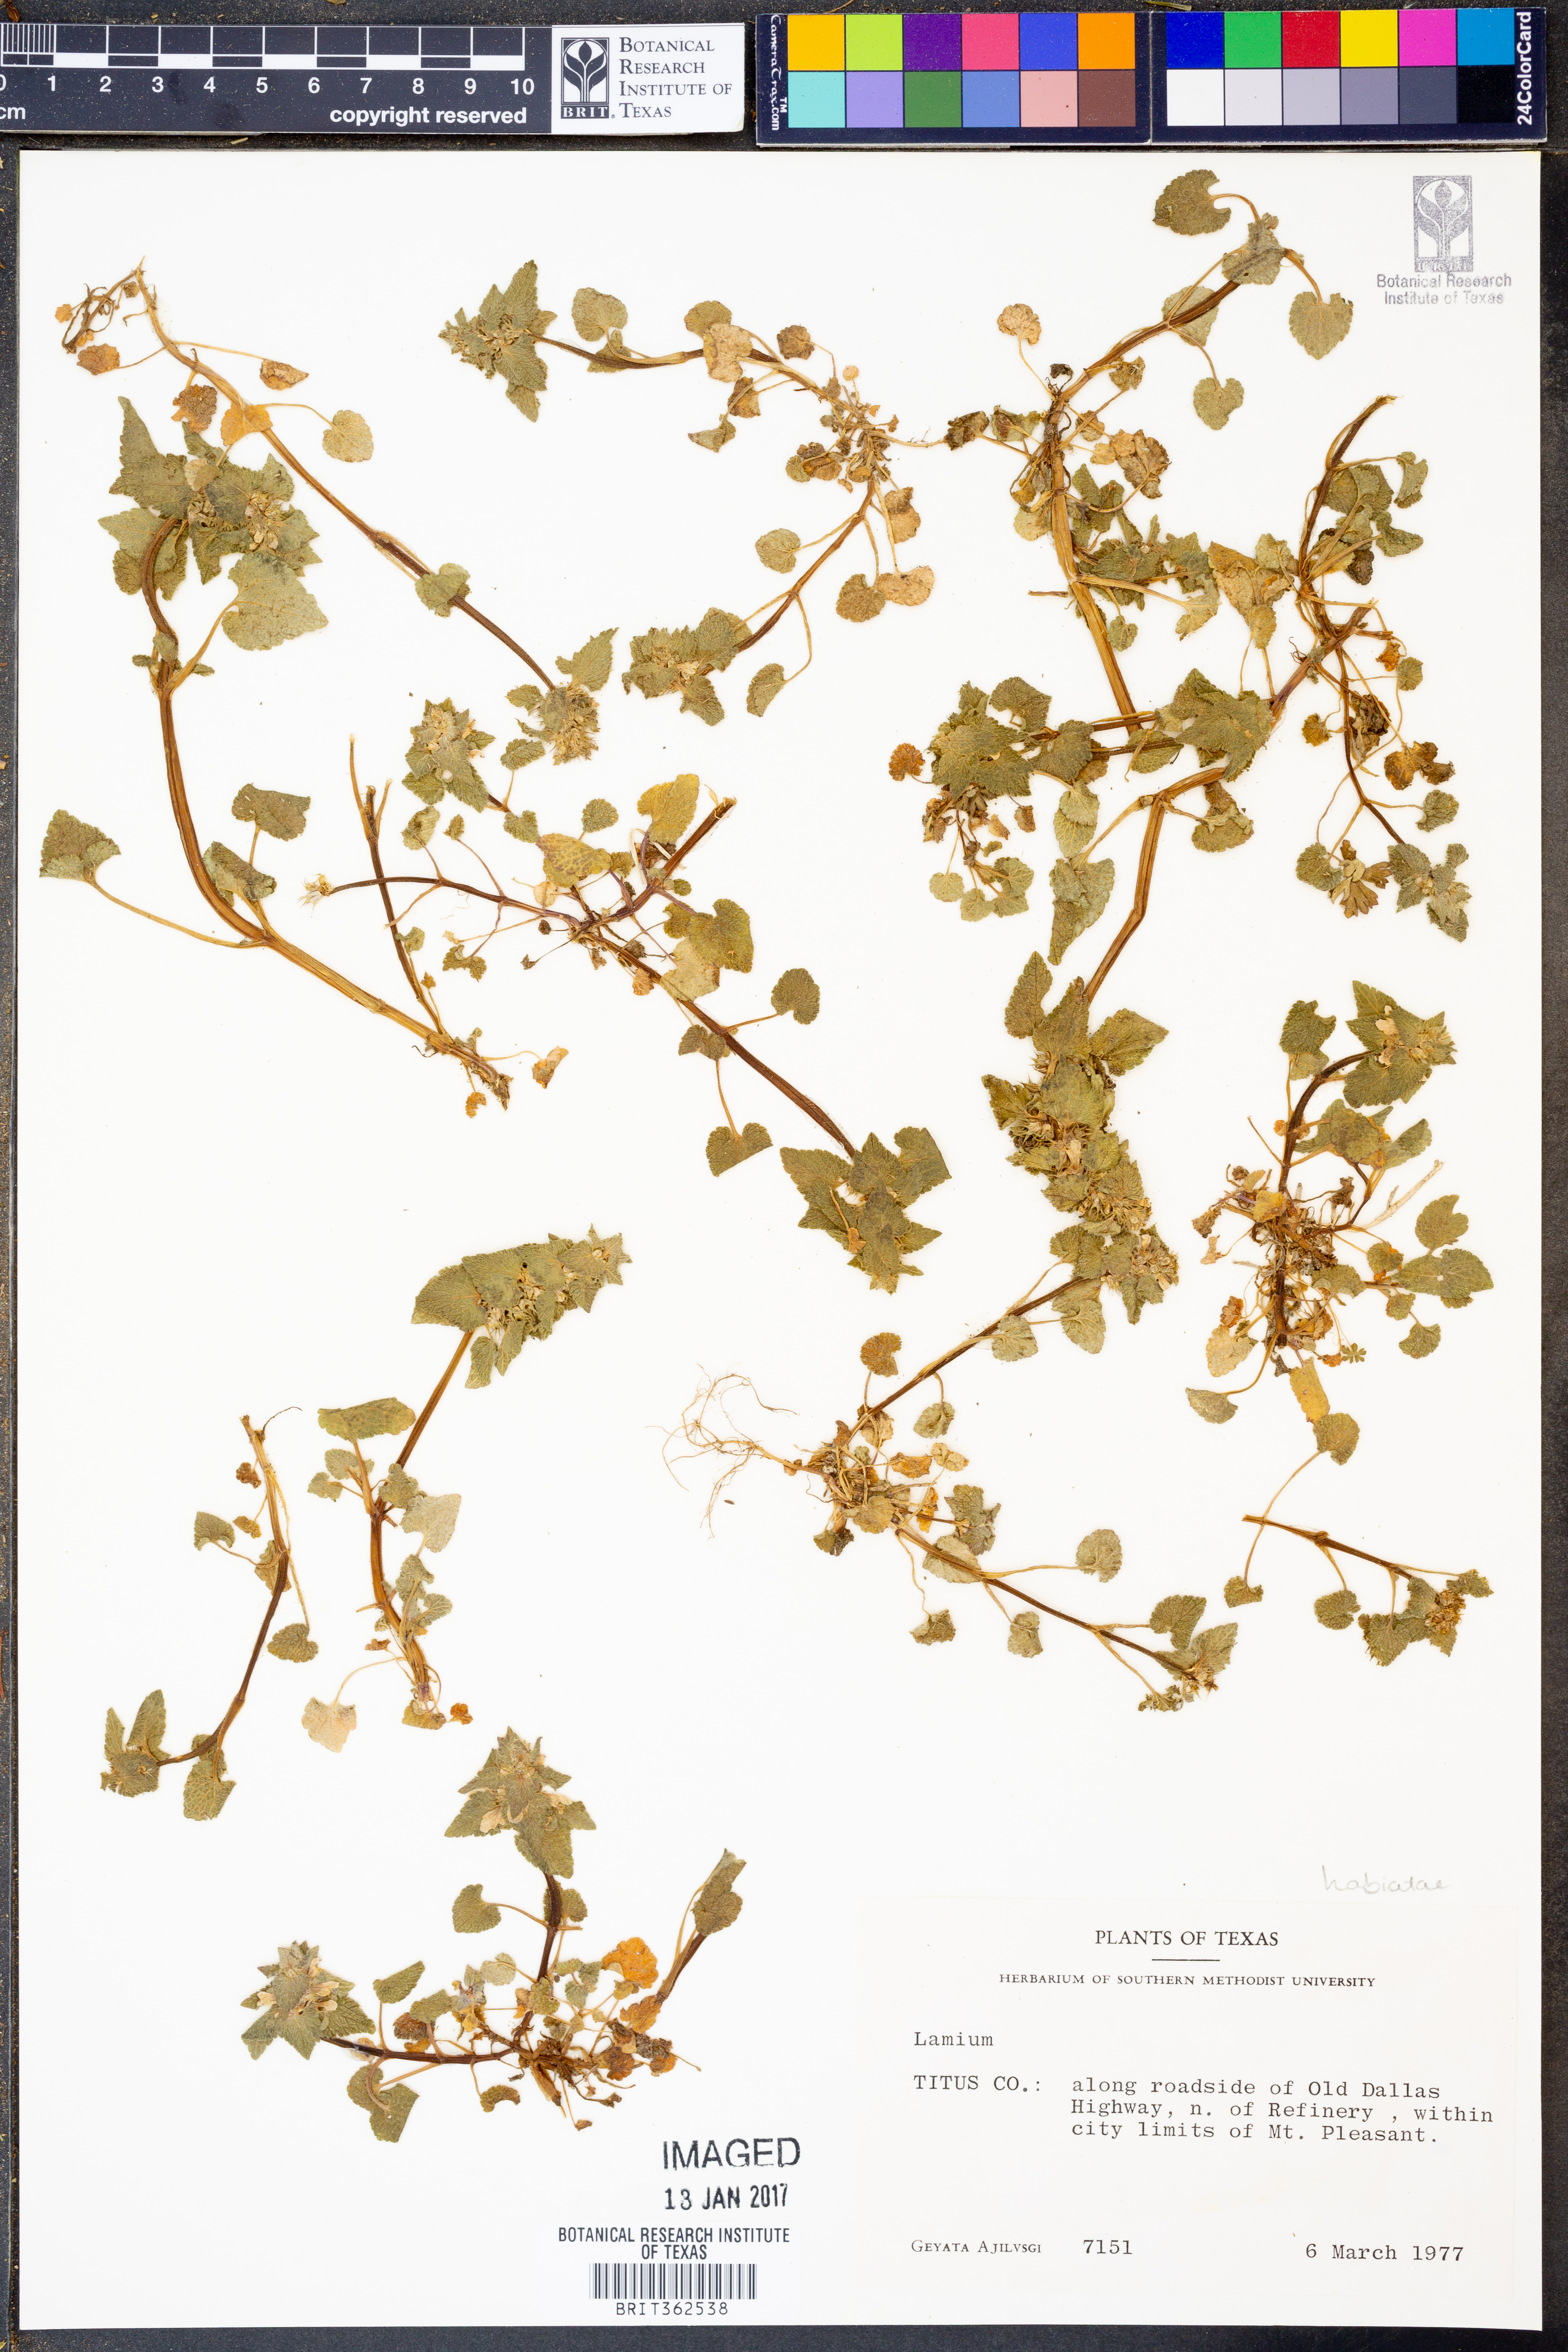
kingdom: Plantae
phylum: Tracheophyta
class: Magnoliopsida
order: Lamiales
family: Lamiaceae
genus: Lamium
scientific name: Lamium
